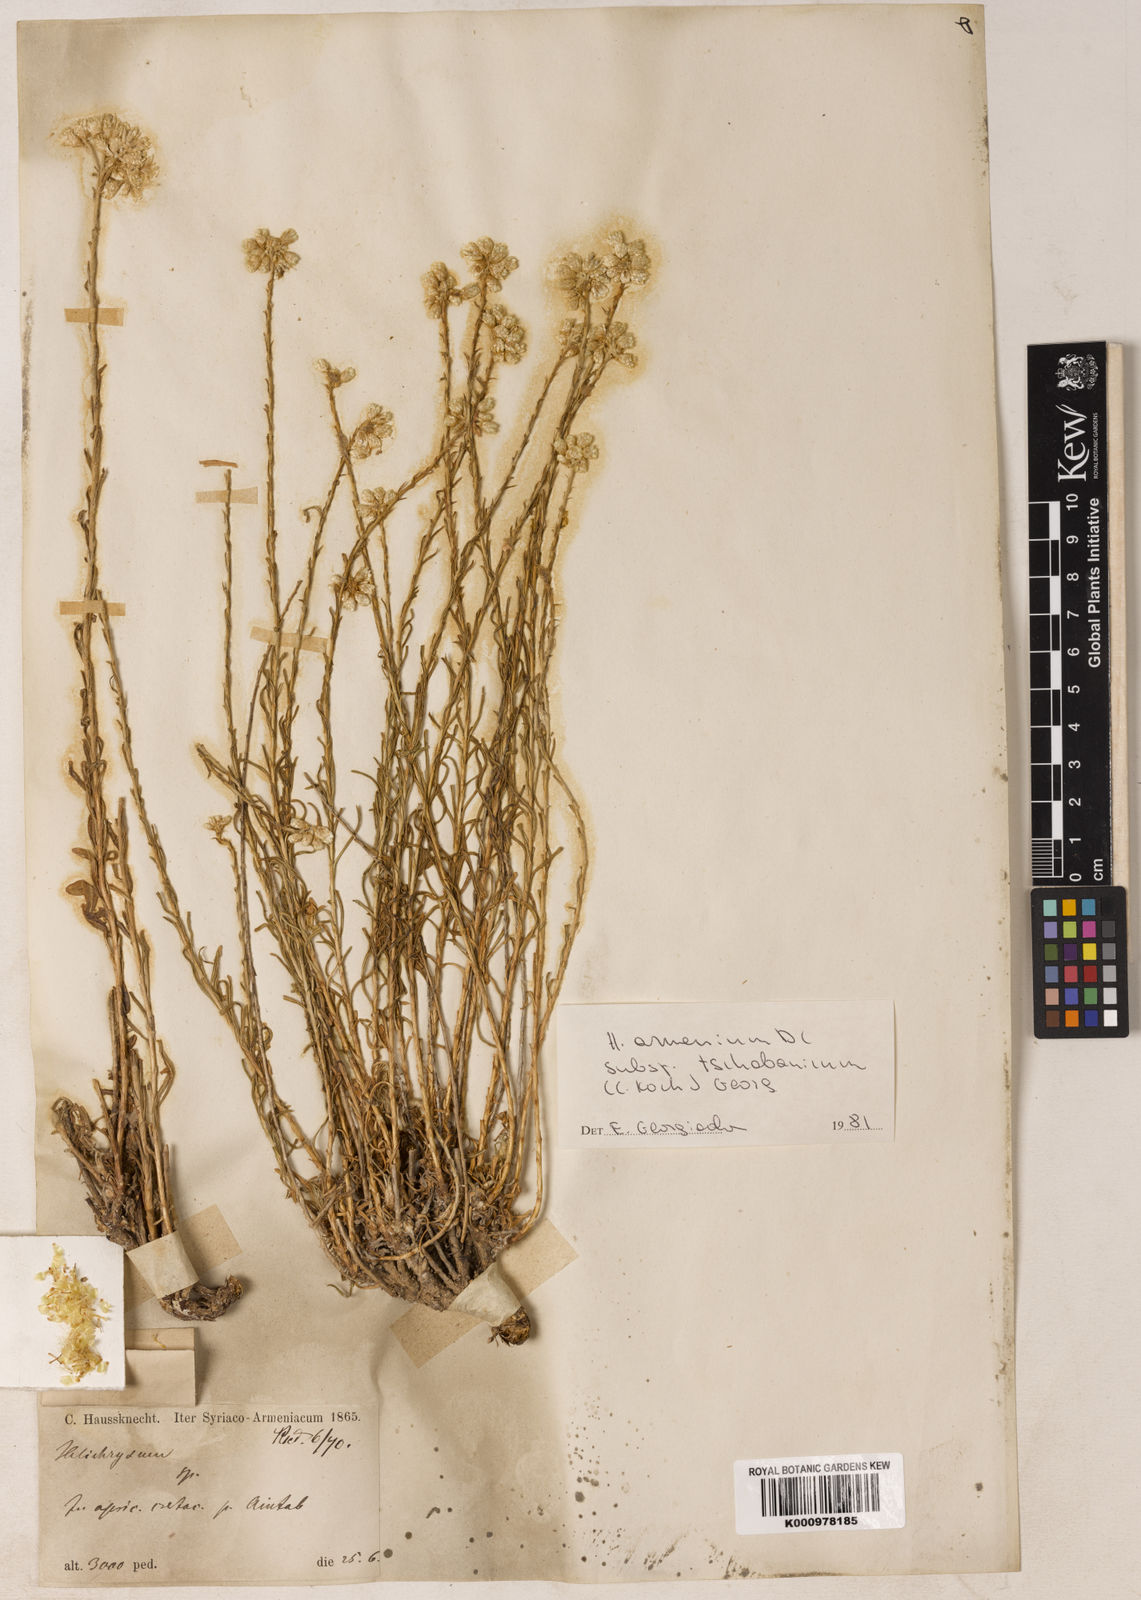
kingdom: Plantae
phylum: Tracheophyta
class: Magnoliopsida
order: Asterales
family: Asteraceae
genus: Helichrysum
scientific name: Helichrysum armenium
